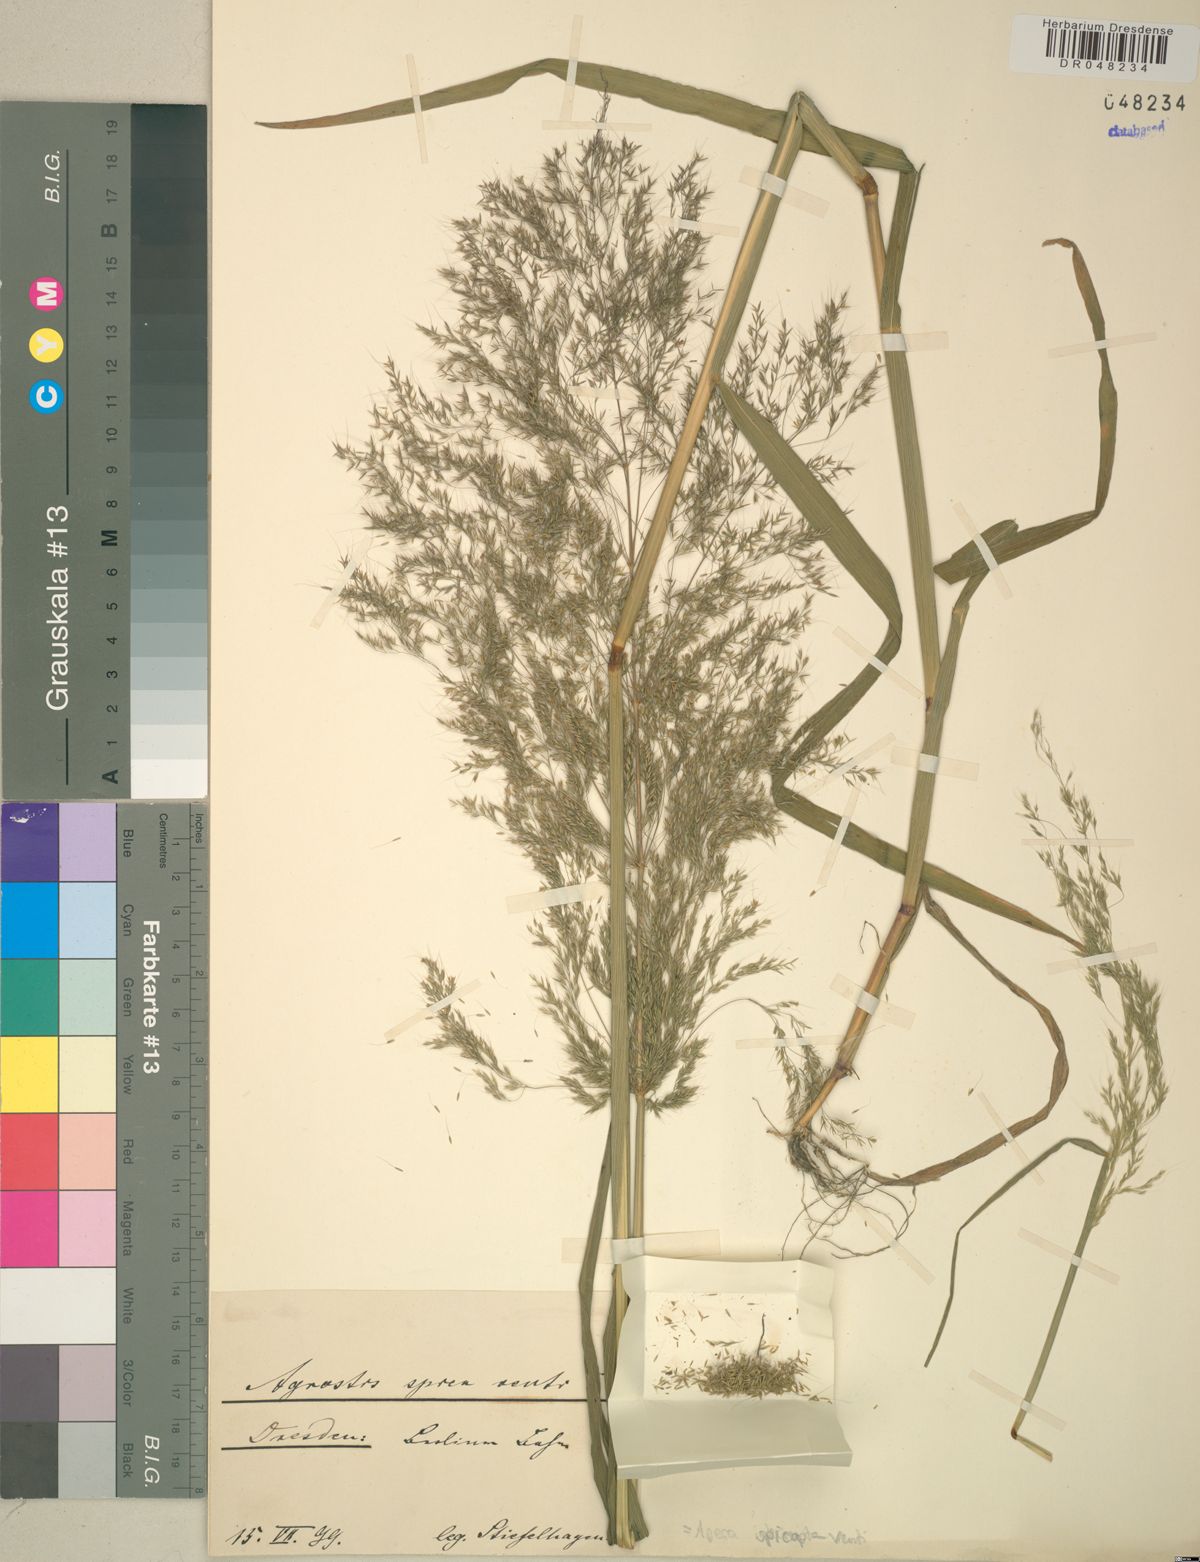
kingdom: Plantae
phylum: Tracheophyta
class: Liliopsida
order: Poales
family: Poaceae
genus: Apera
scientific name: Apera spica-venti
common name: Loose silky-bent
